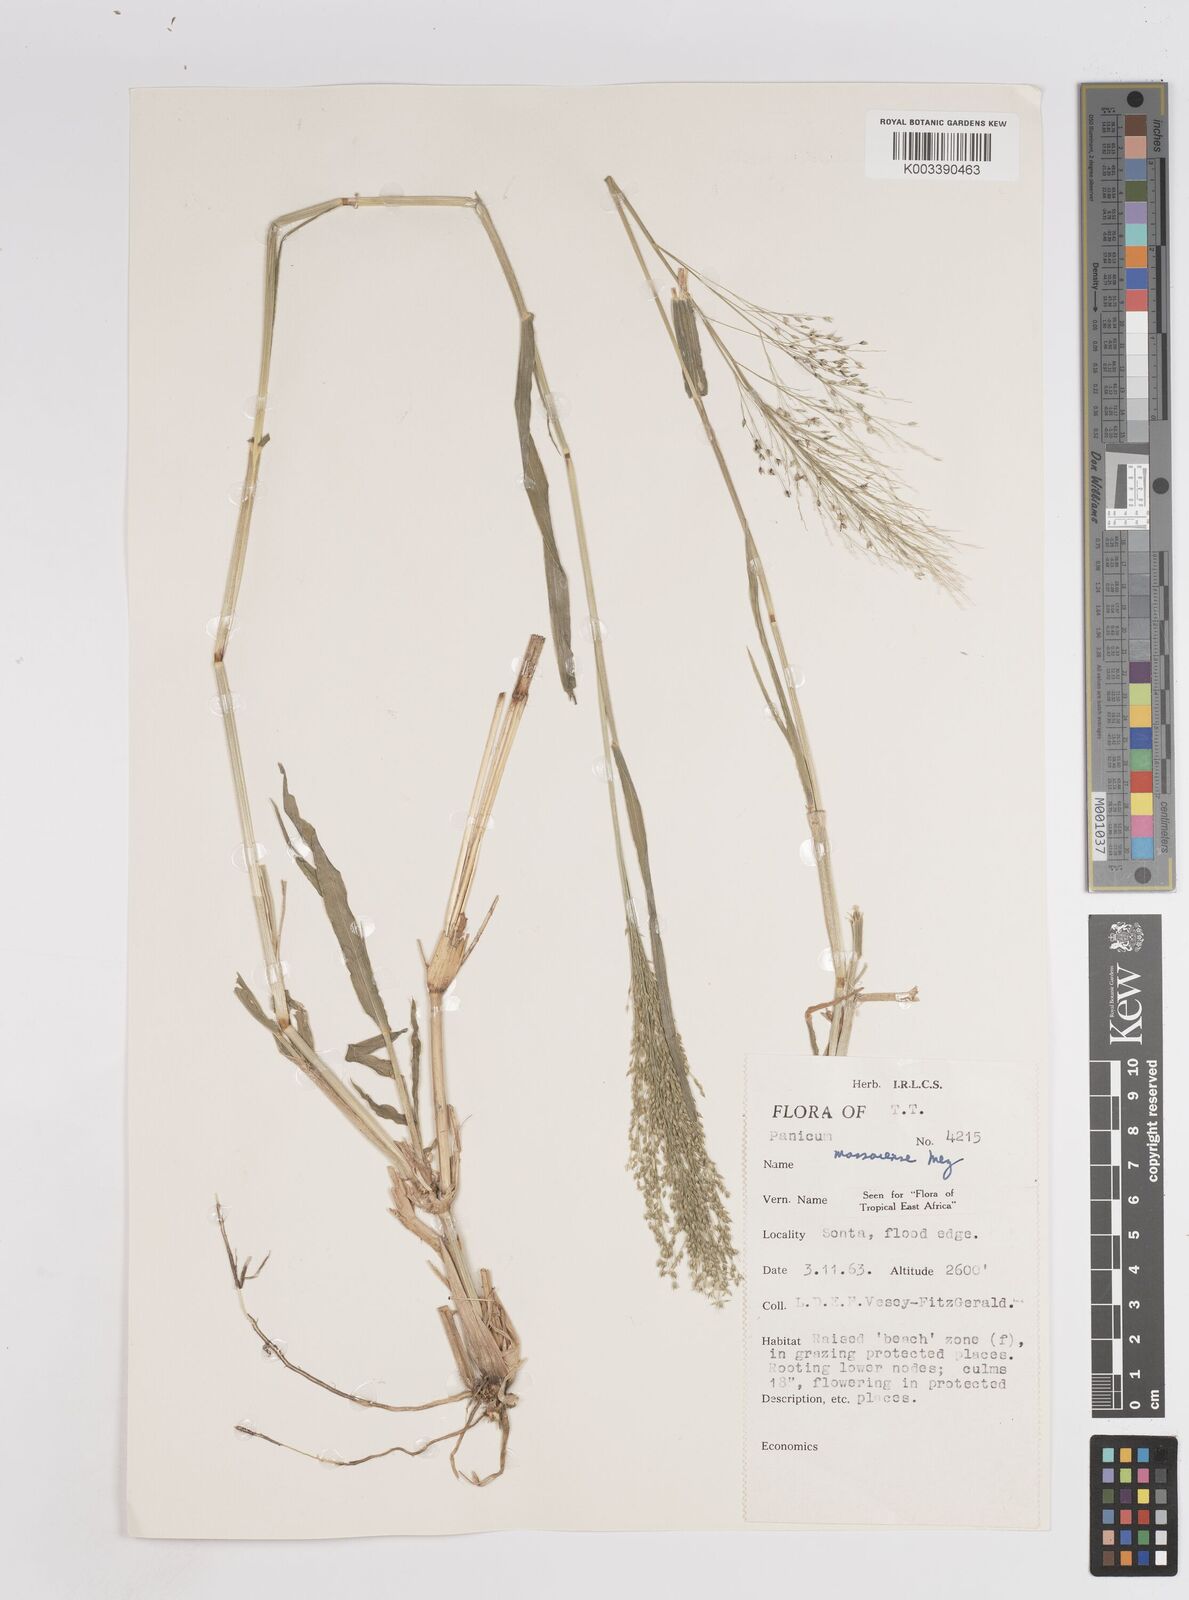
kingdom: Plantae
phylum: Tracheophyta
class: Liliopsida
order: Poales
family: Poaceae
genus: Panicum
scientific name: Panicum massaiense
